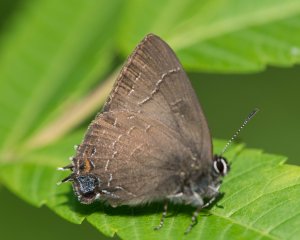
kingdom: Animalia
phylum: Arthropoda
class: Insecta
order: Lepidoptera
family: Lycaenidae
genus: Satyrium
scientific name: Satyrium calanus
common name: Banded Hairstreak
